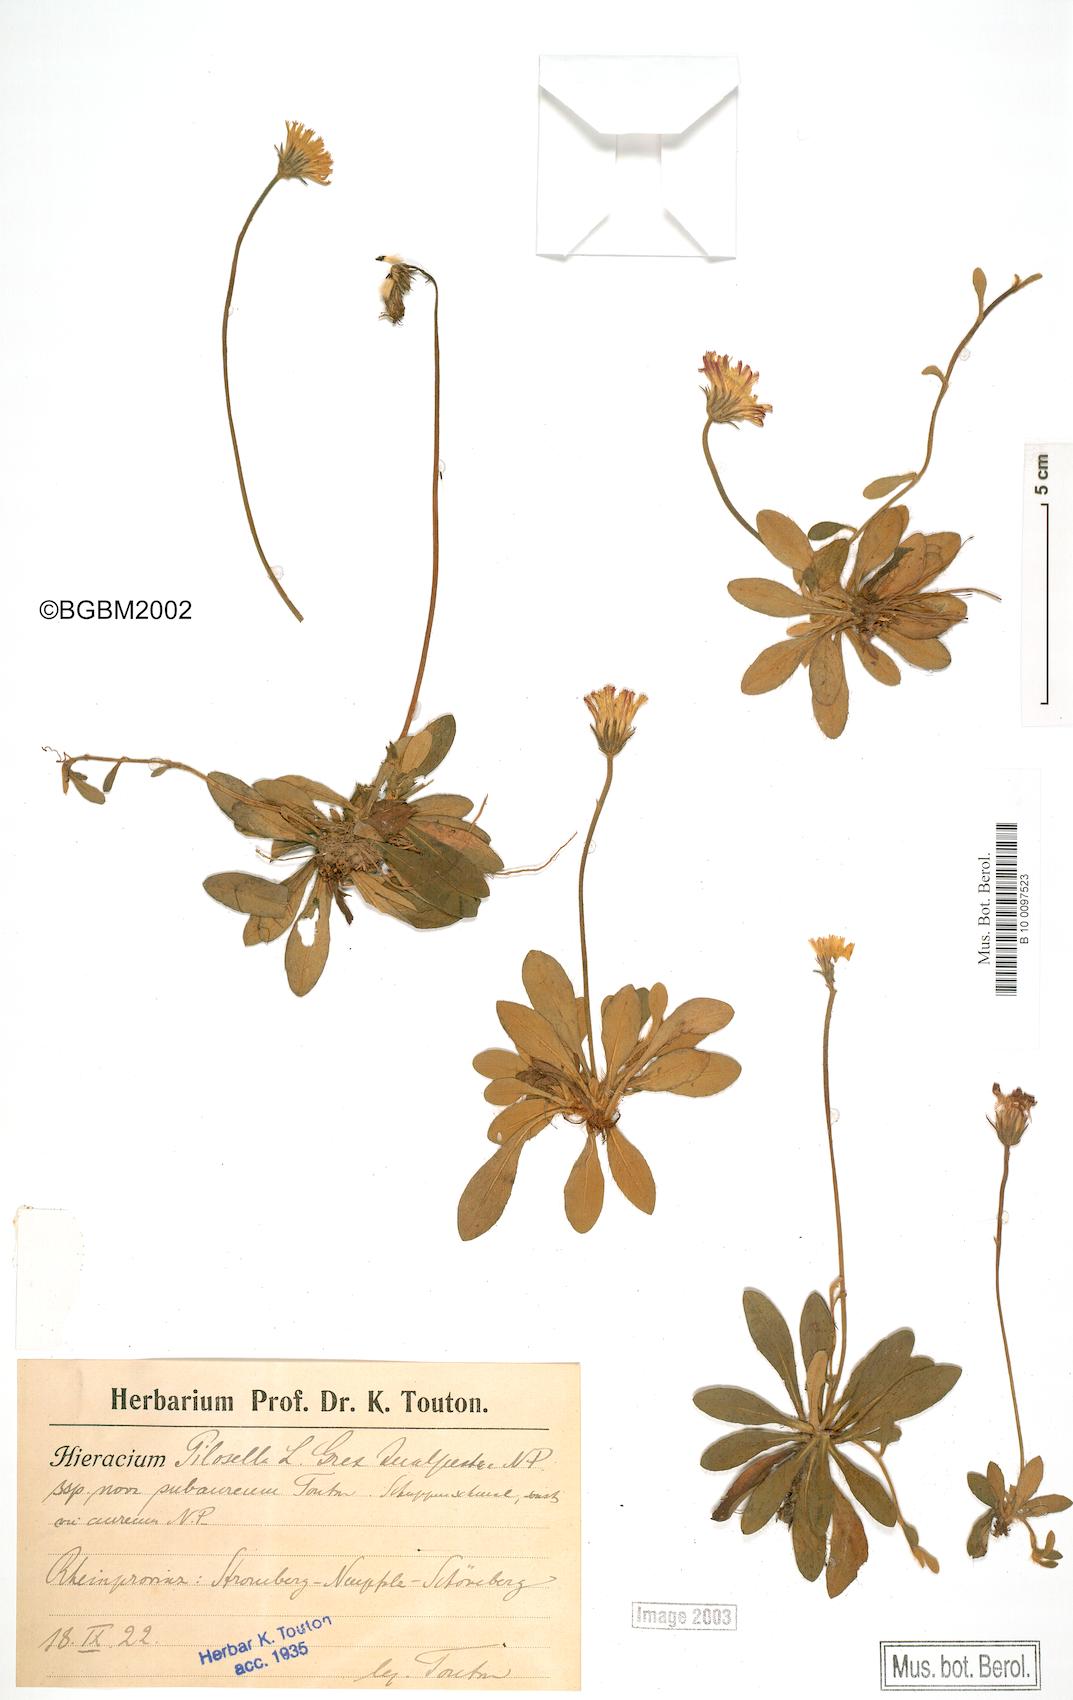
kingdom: Plantae
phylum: Tracheophyta
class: Magnoliopsida
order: Asterales
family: Asteraceae
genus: Pilosella
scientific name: Pilosella officinarum
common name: Mouse-ear hawkweed
